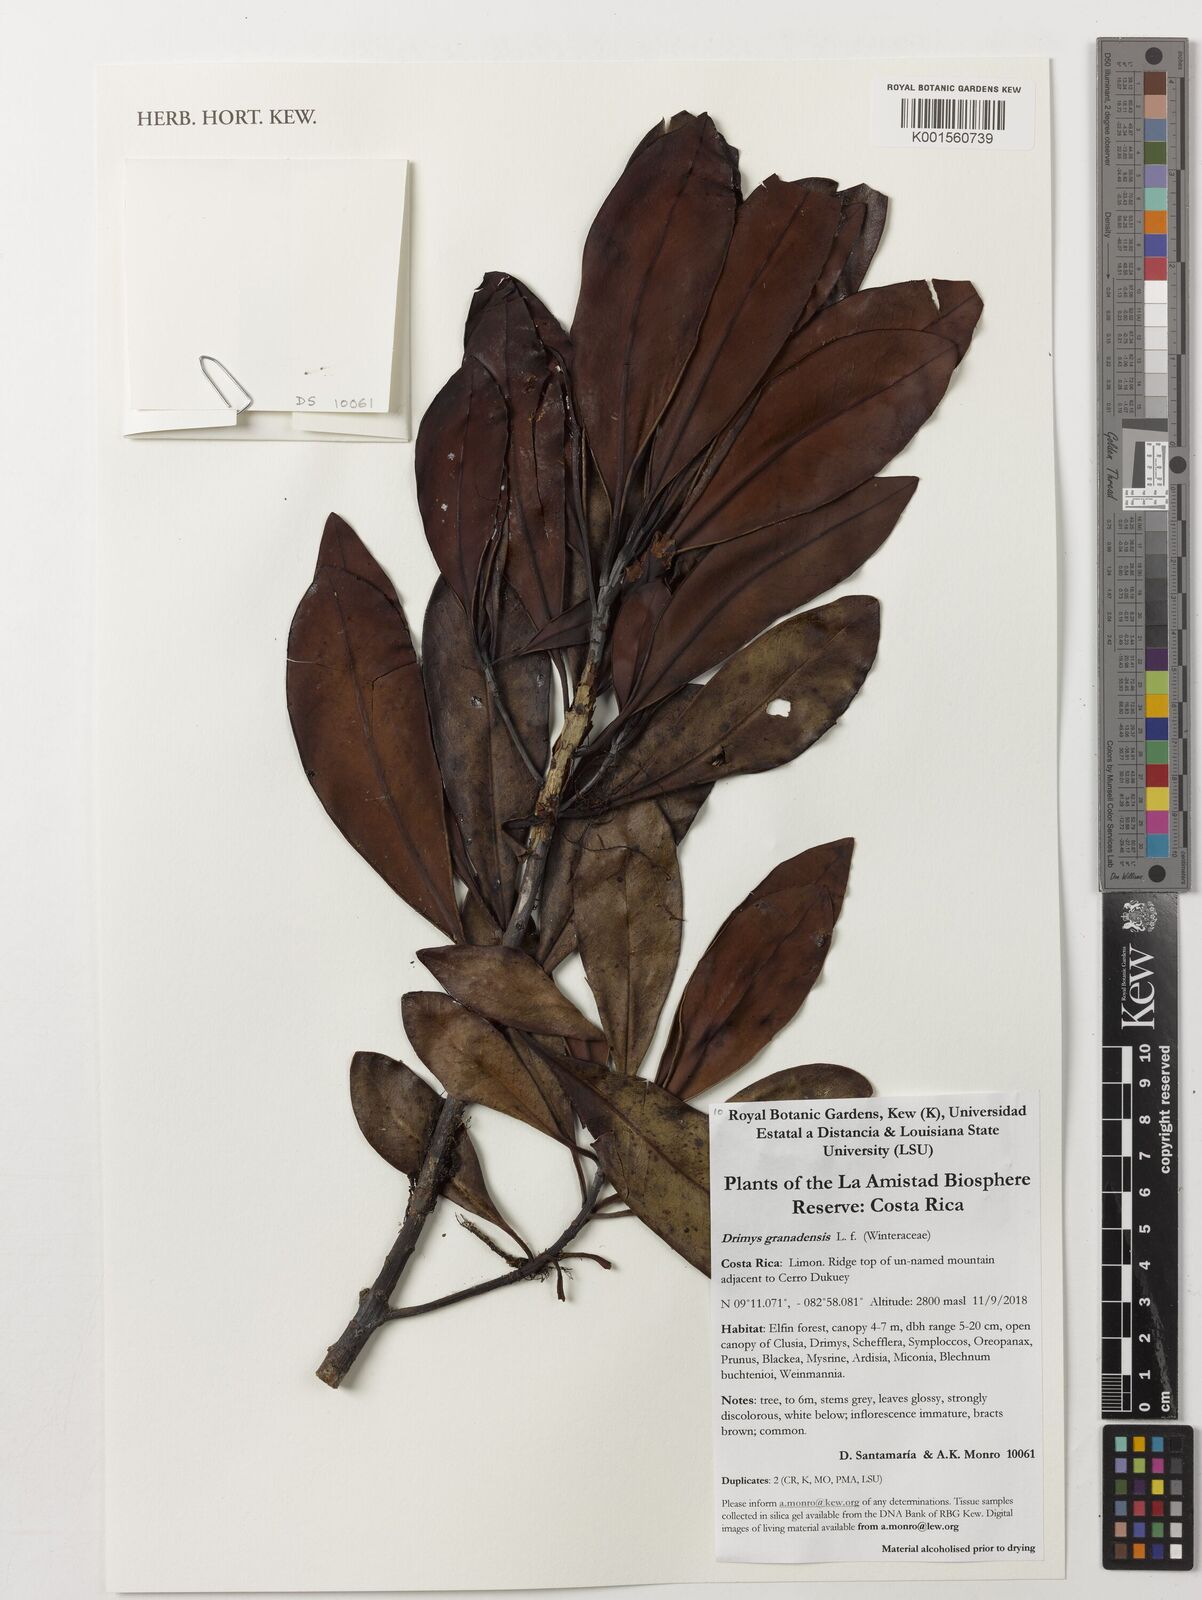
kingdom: Plantae
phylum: Tracheophyta
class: Magnoliopsida
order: Canellales
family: Winteraceae
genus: Drimys
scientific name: Drimys granadensis
